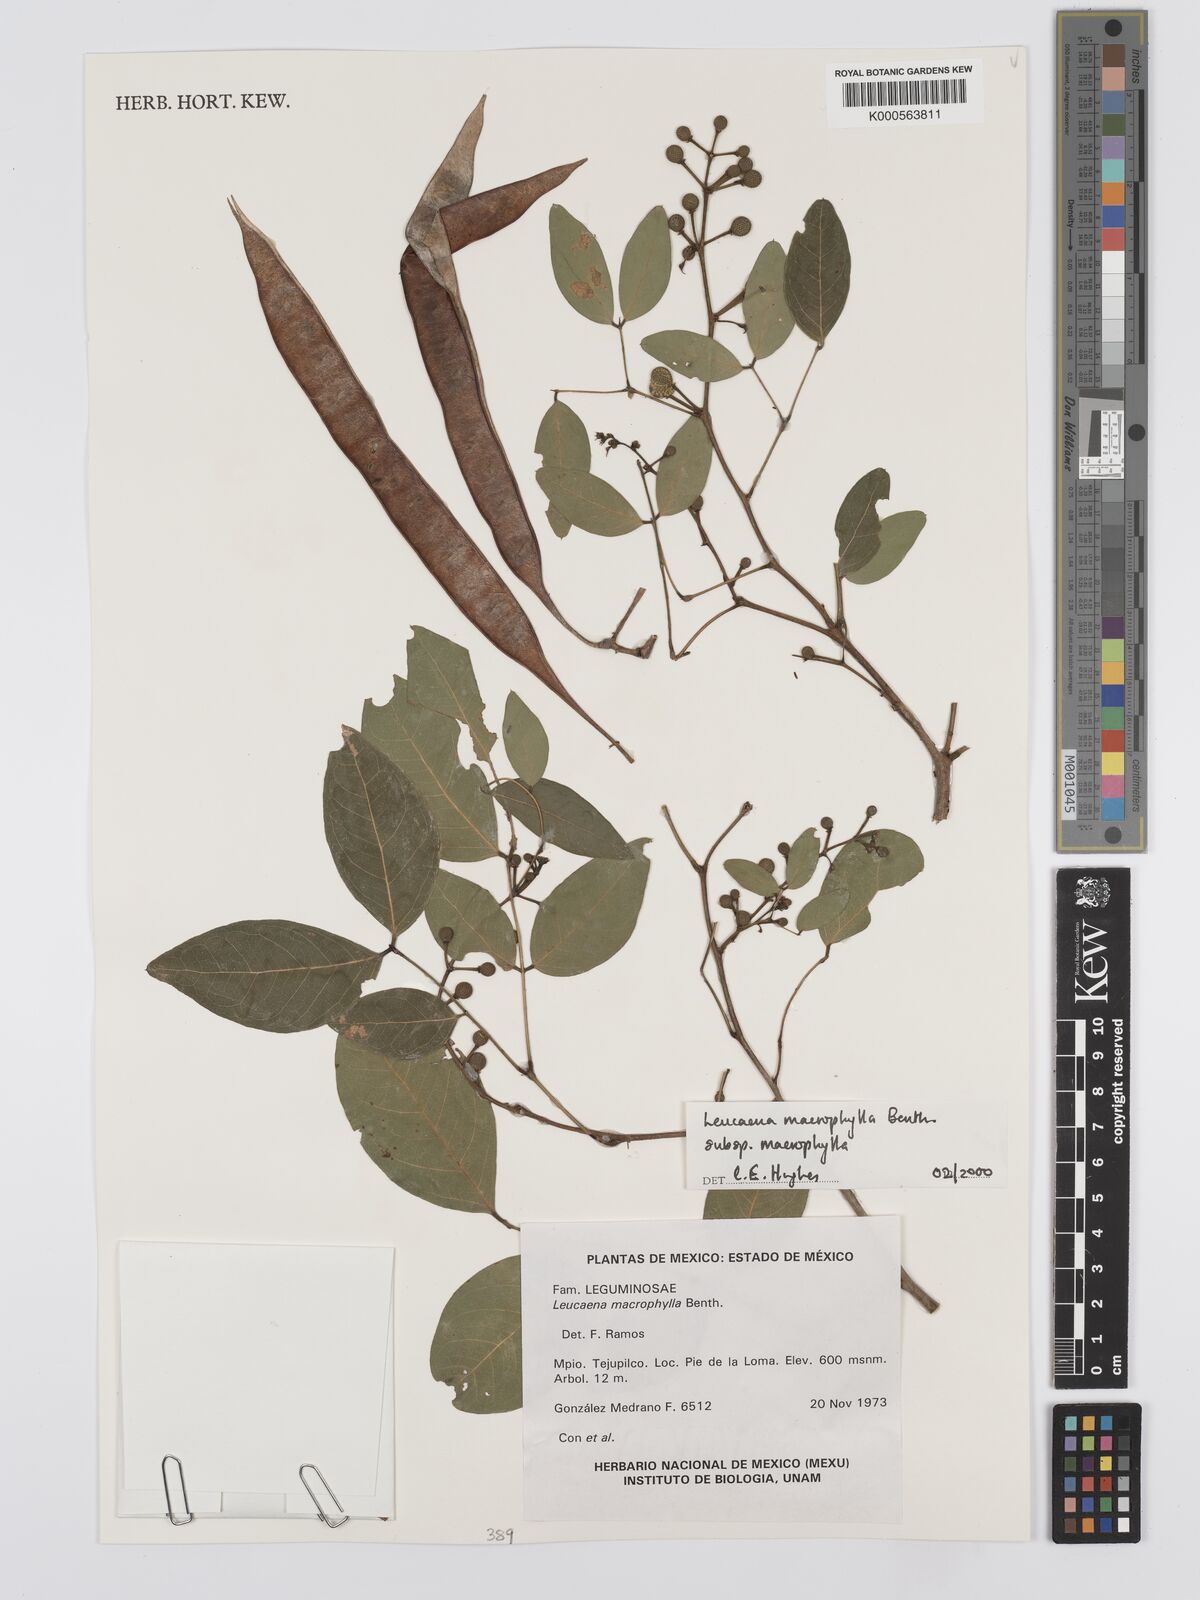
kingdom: Plantae
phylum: Tracheophyta
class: Magnoliopsida
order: Fabales
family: Fabaceae
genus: Leucaena
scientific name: Leucaena macrophylla
